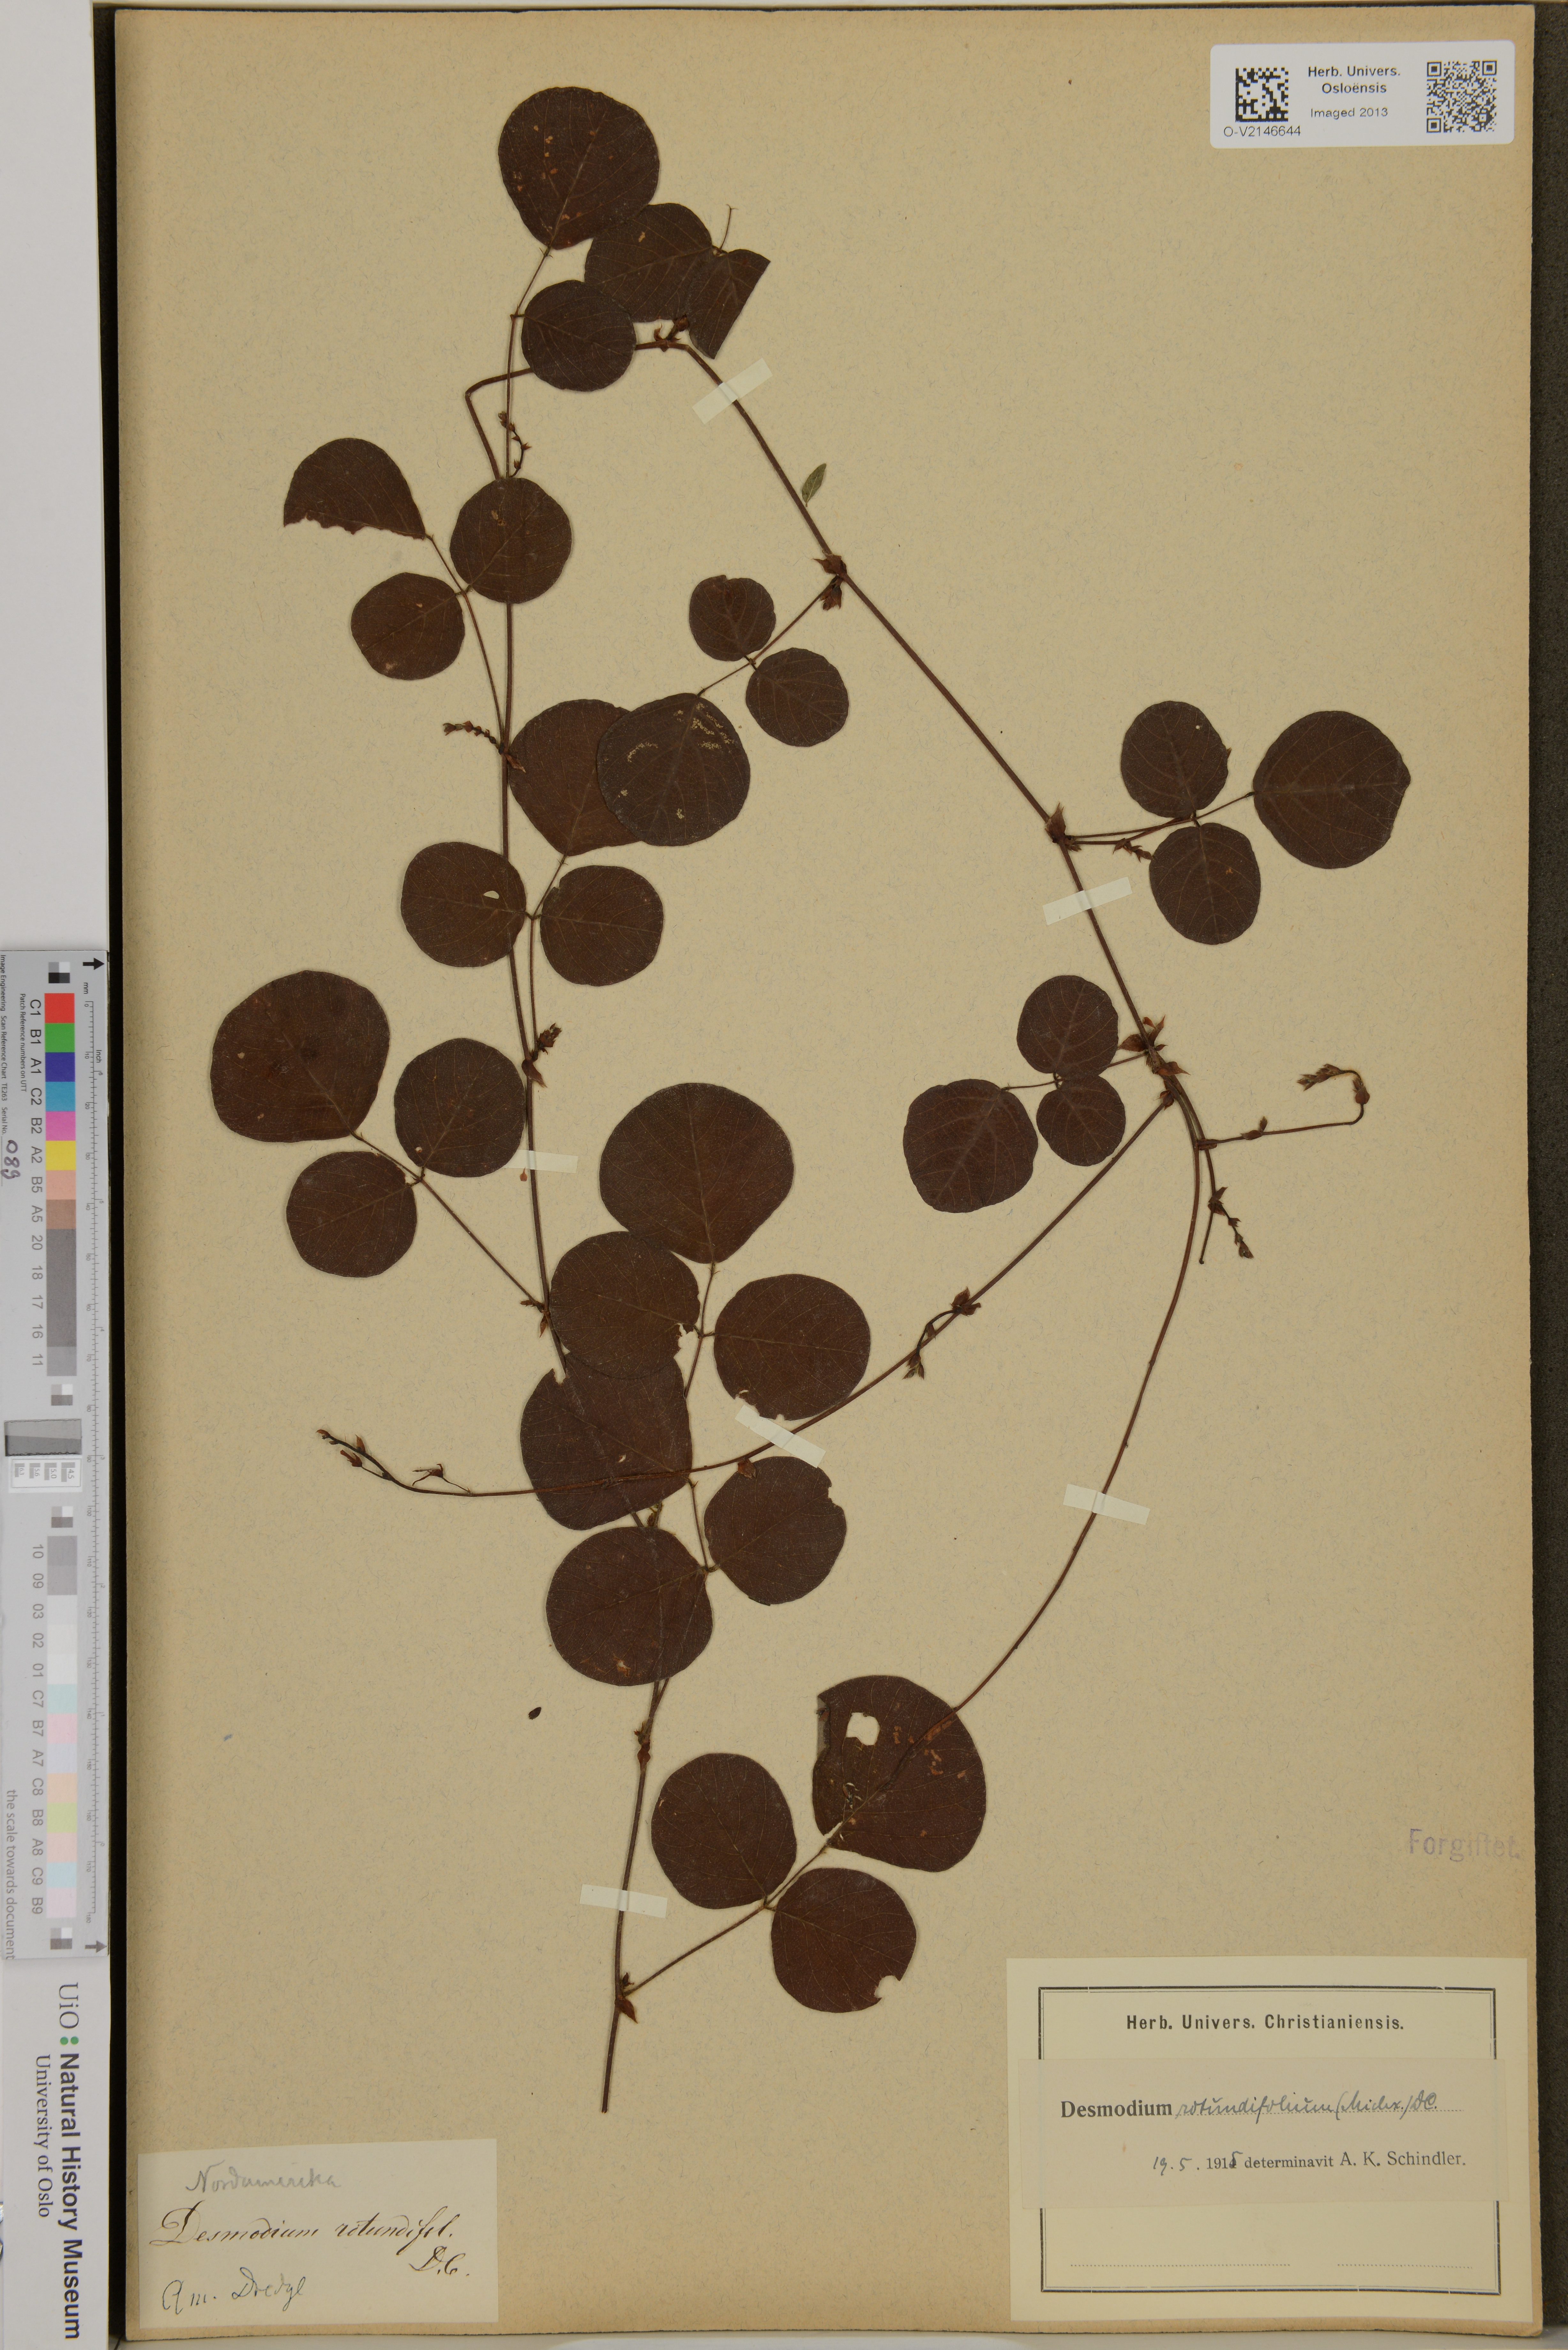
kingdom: Plantae
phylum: Tracheophyta
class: Magnoliopsida
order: Fabales
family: Fabaceae
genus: Desmodium
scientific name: Desmodium rotundifolium
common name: Dollarleaf
